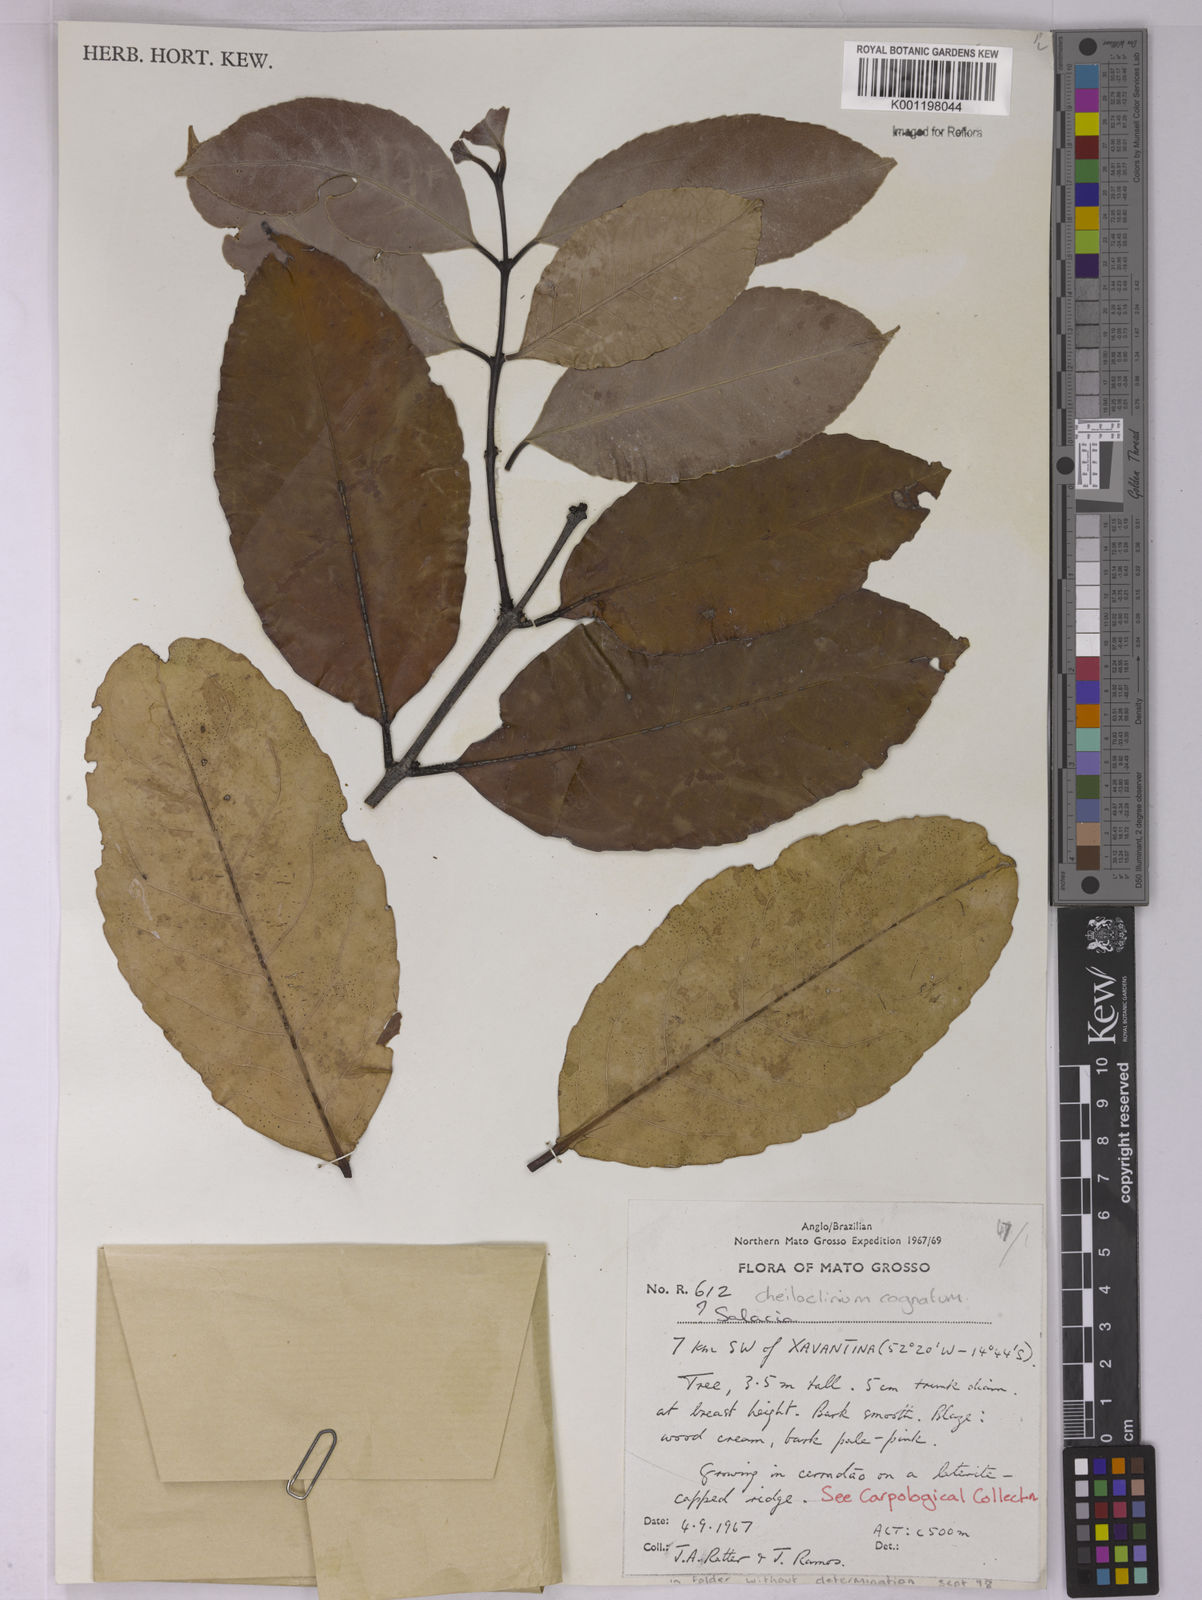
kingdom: Plantae
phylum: Tracheophyta
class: Magnoliopsida
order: Celastrales
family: Celastraceae
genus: Cheiloclinium
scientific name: Cheiloclinium cognatum
